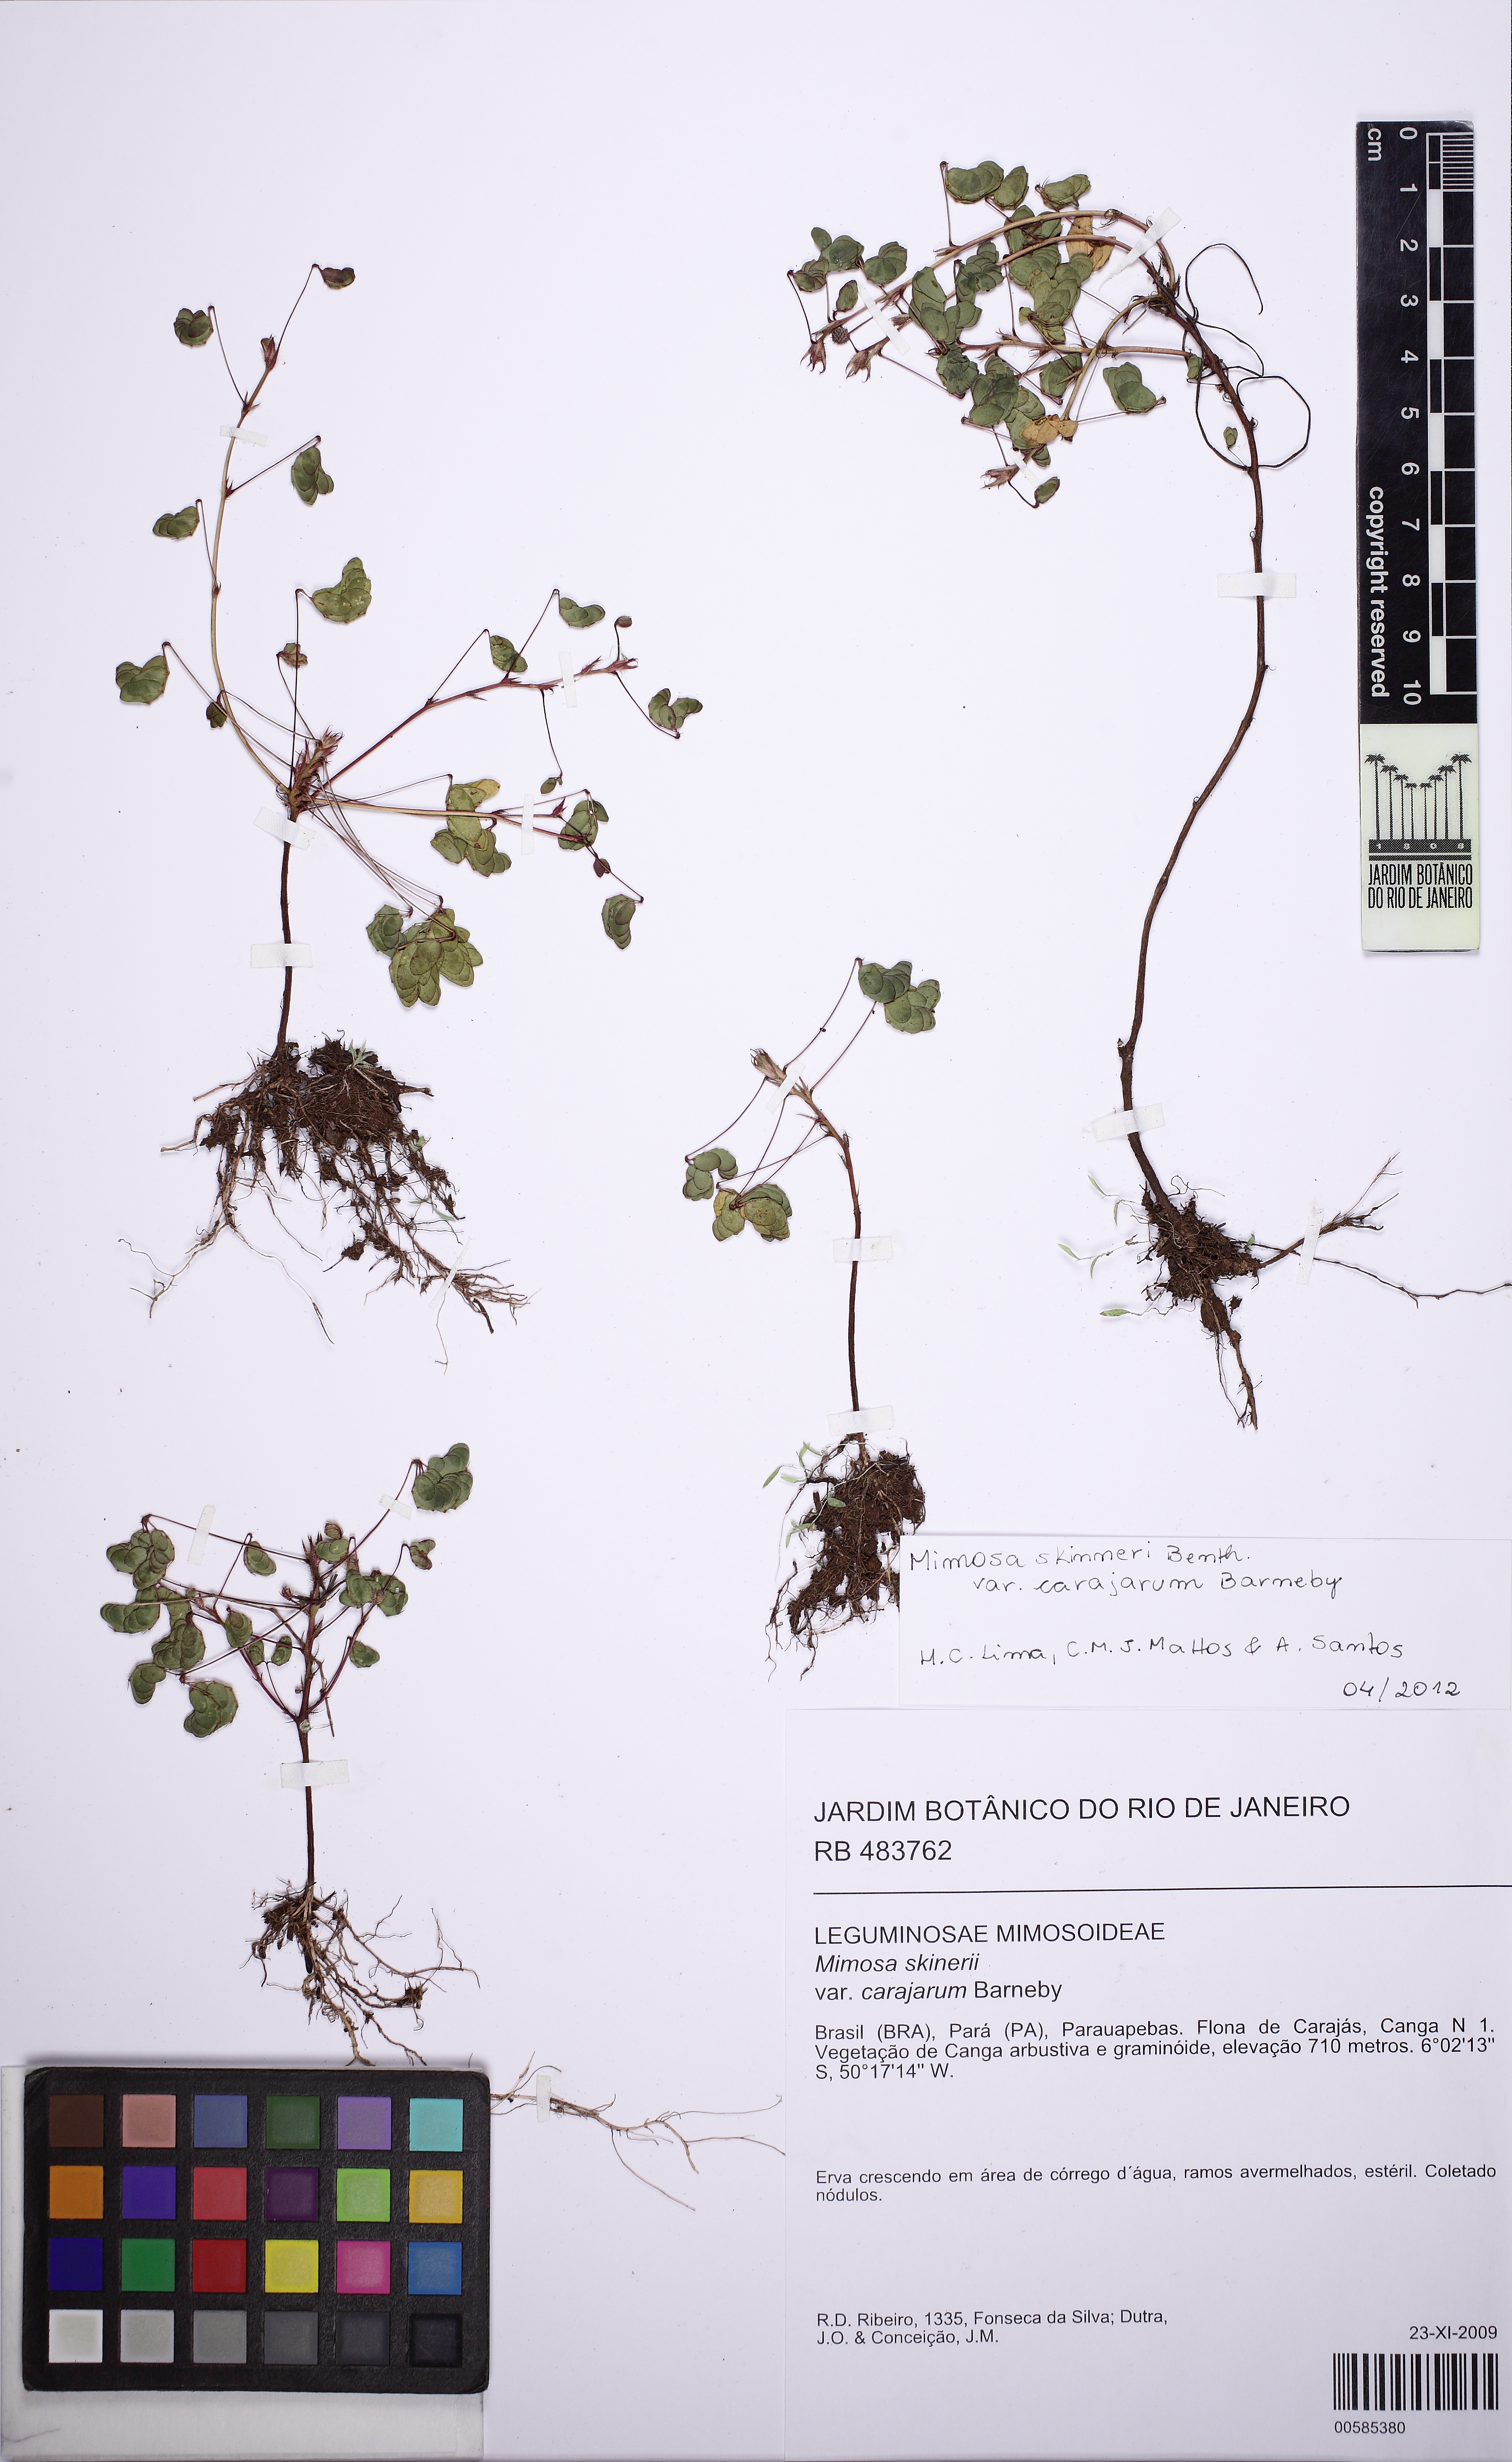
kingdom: Plantae
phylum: Tracheophyta
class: Magnoliopsida
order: Fabales
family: Fabaceae
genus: Mimosa
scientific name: Mimosa skinneri
